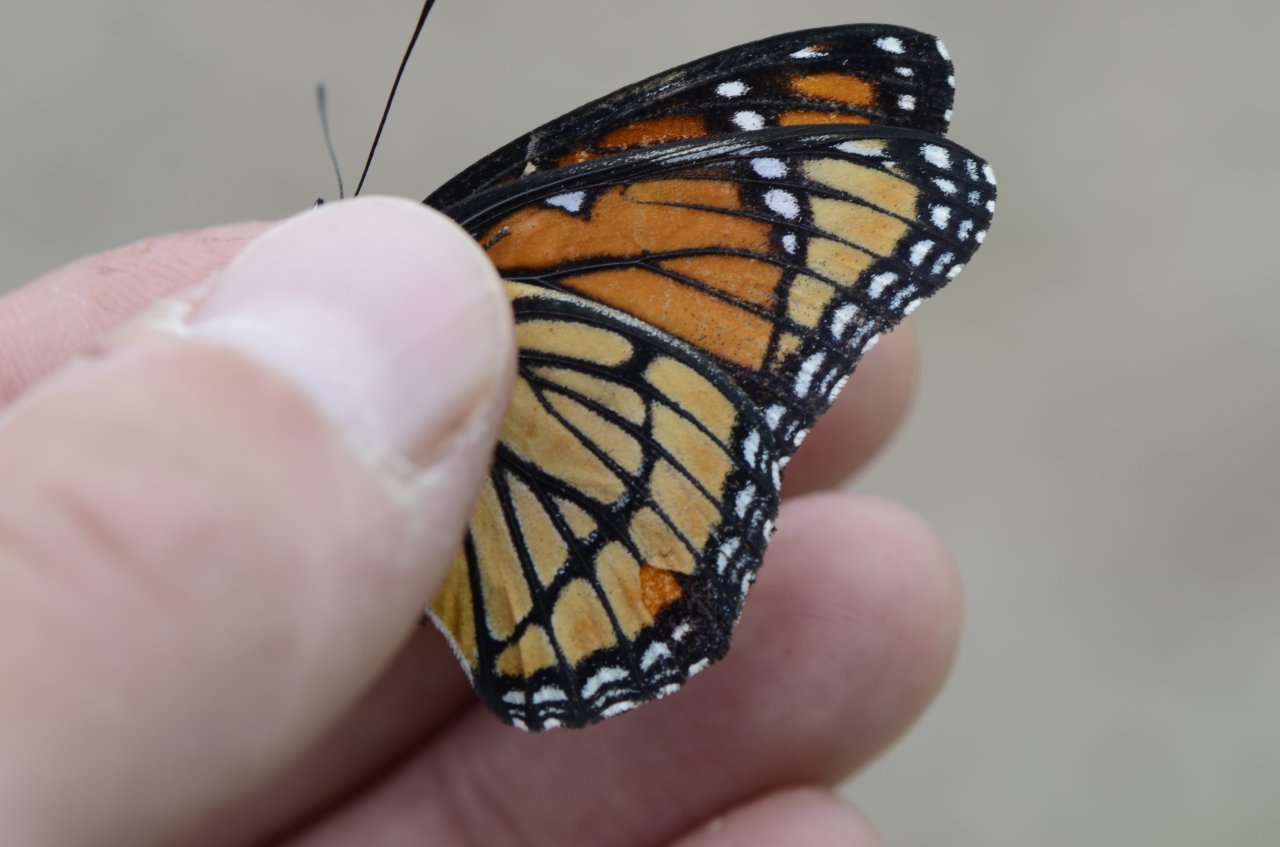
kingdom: Animalia
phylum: Arthropoda
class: Insecta
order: Lepidoptera
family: Nymphalidae
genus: Limenitis
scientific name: Limenitis archippus
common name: Viceroy
